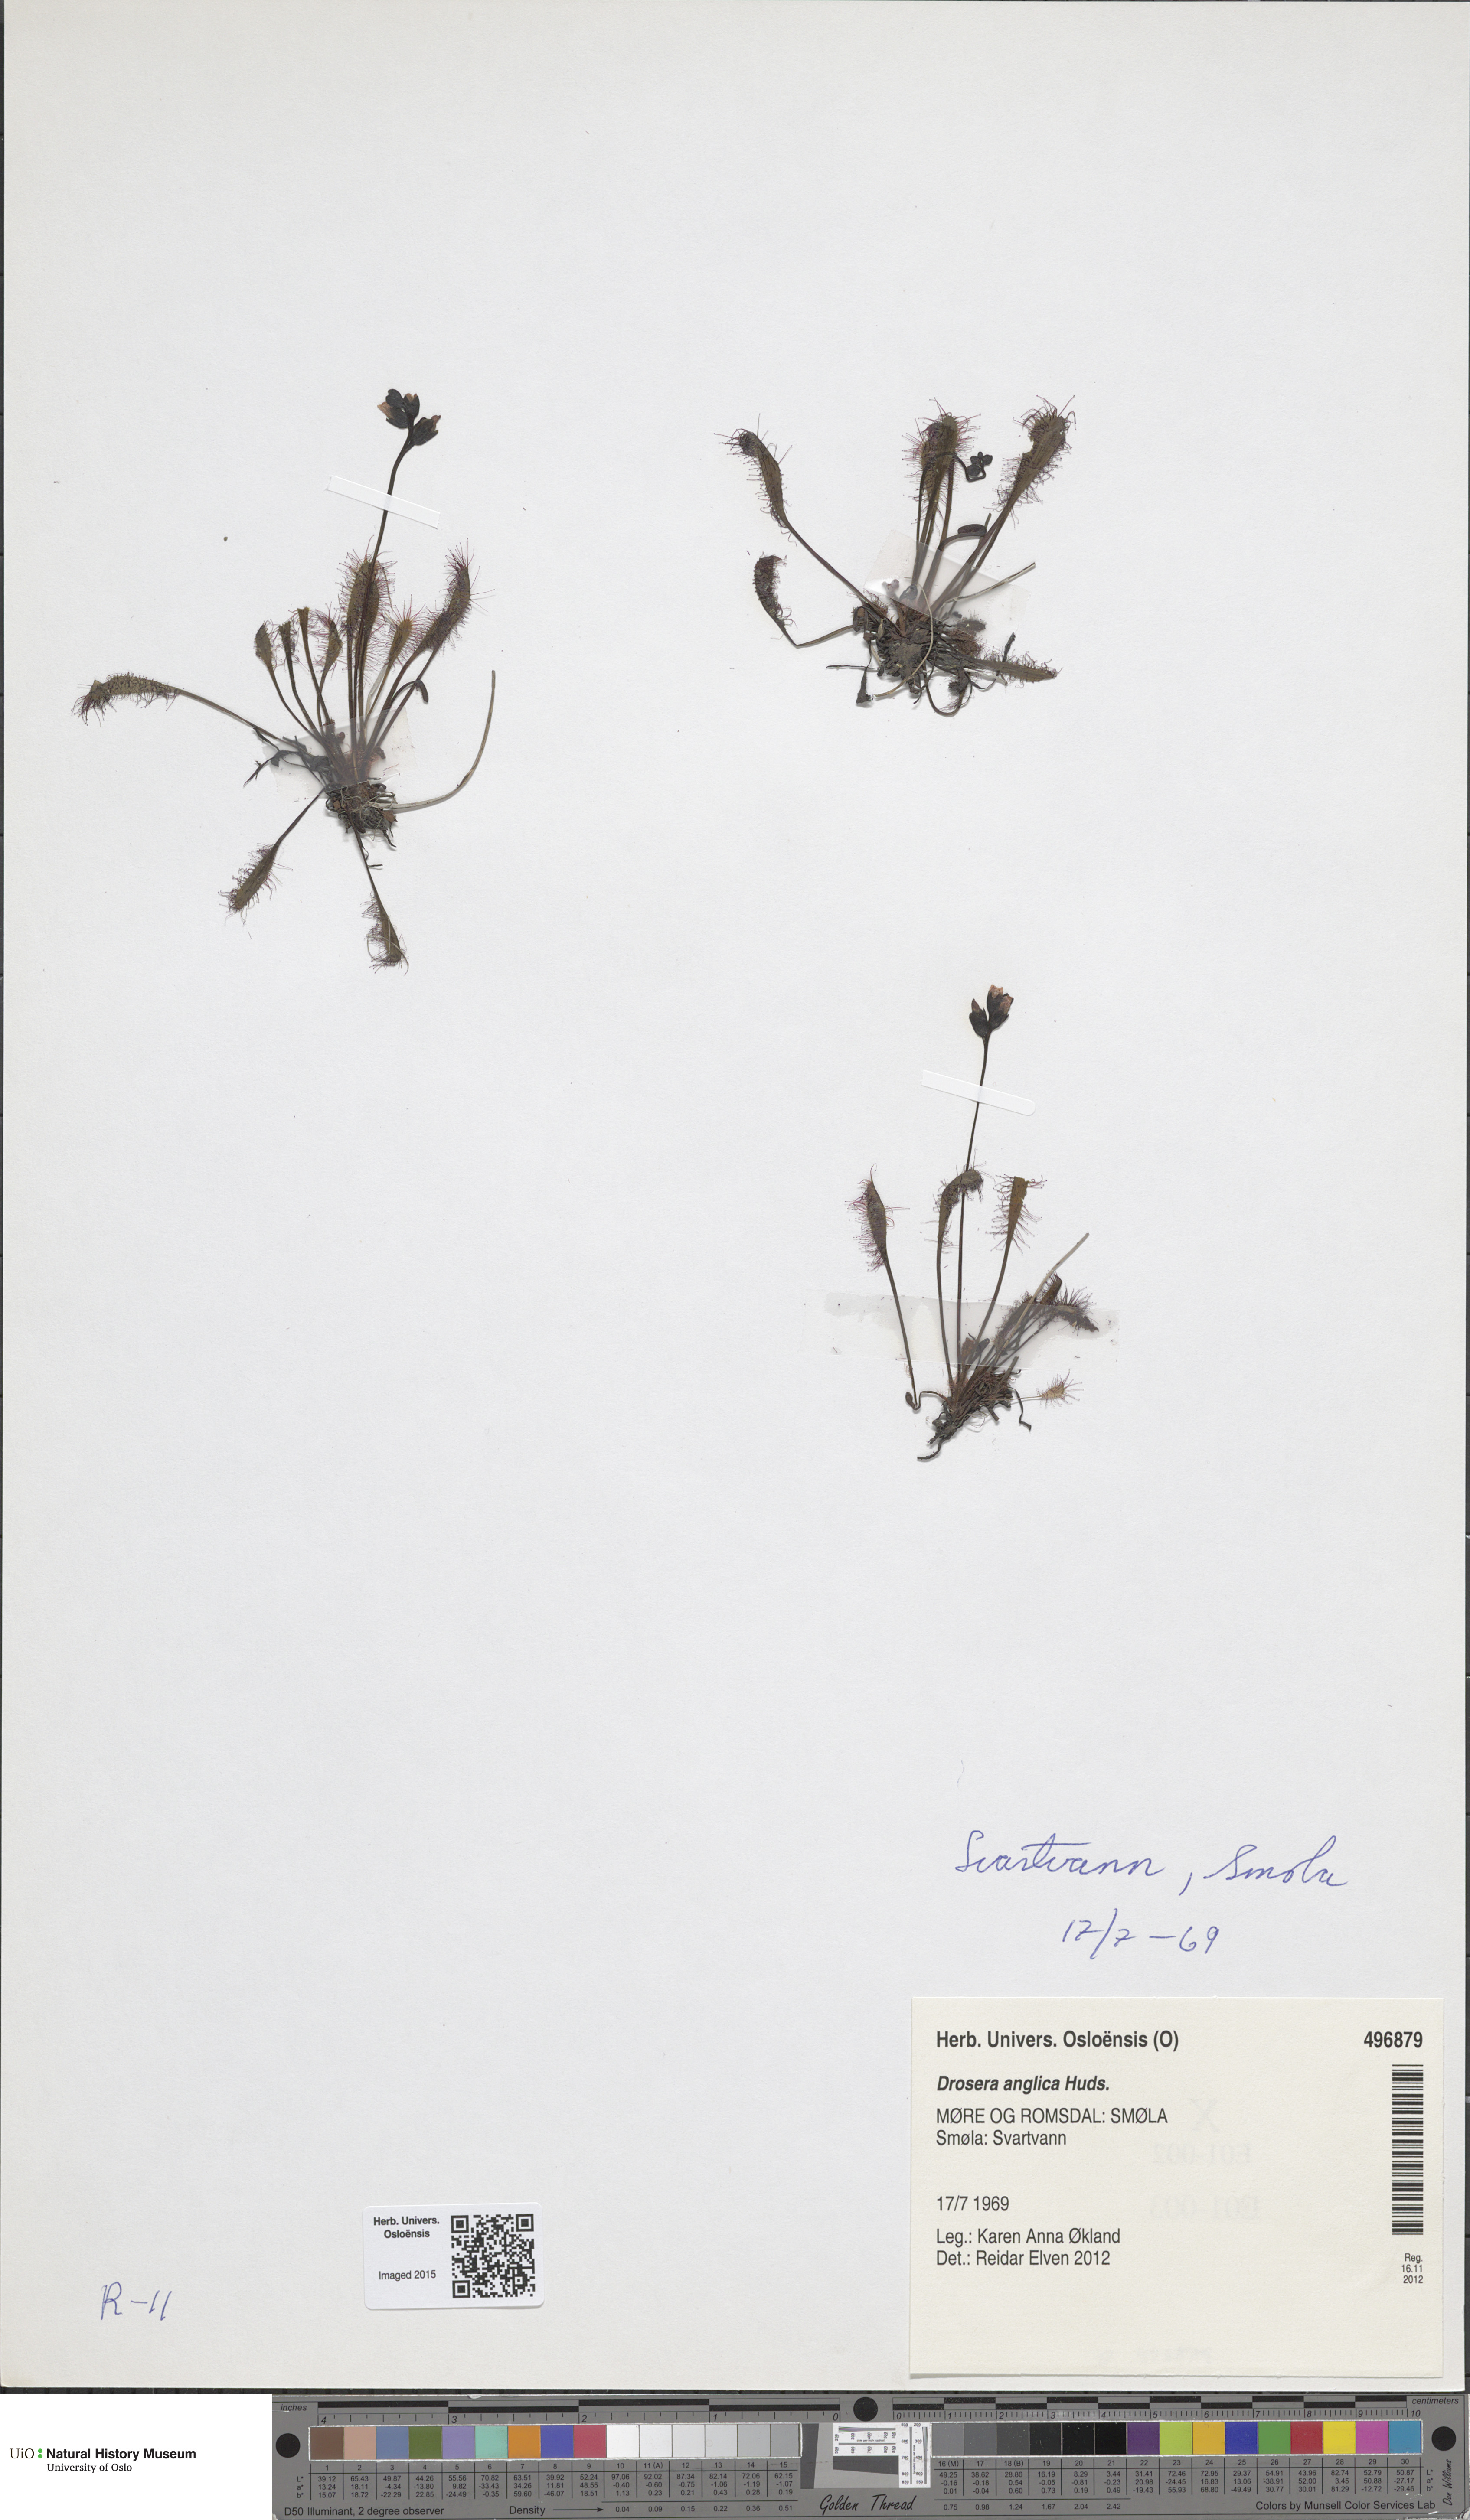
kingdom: Plantae
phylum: Tracheophyta
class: Magnoliopsida
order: Caryophyllales
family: Droseraceae
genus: Drosera
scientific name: Drosera anglica
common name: Great sundew
